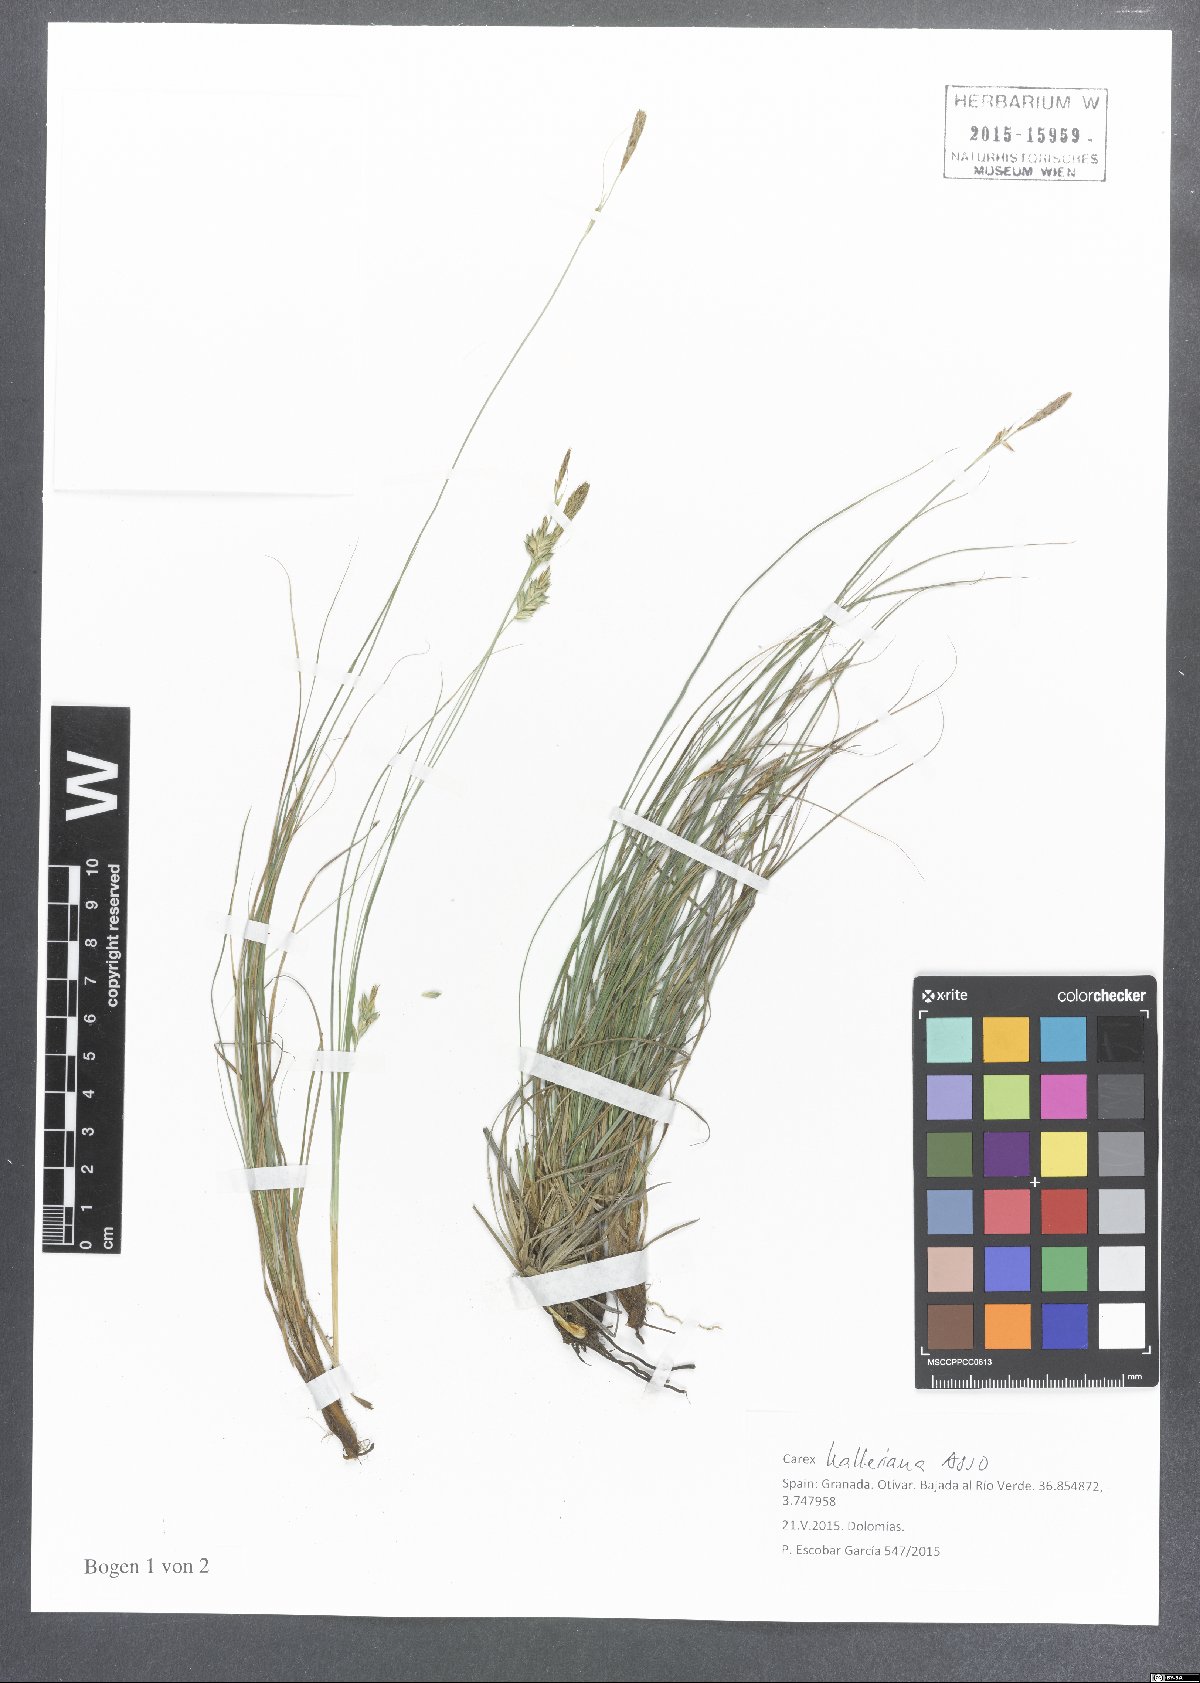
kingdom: Plantae
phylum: Tracheophyta
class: Liliopsida
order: Poales
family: Cyperaceae
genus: Carex
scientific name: Carex halleriana
